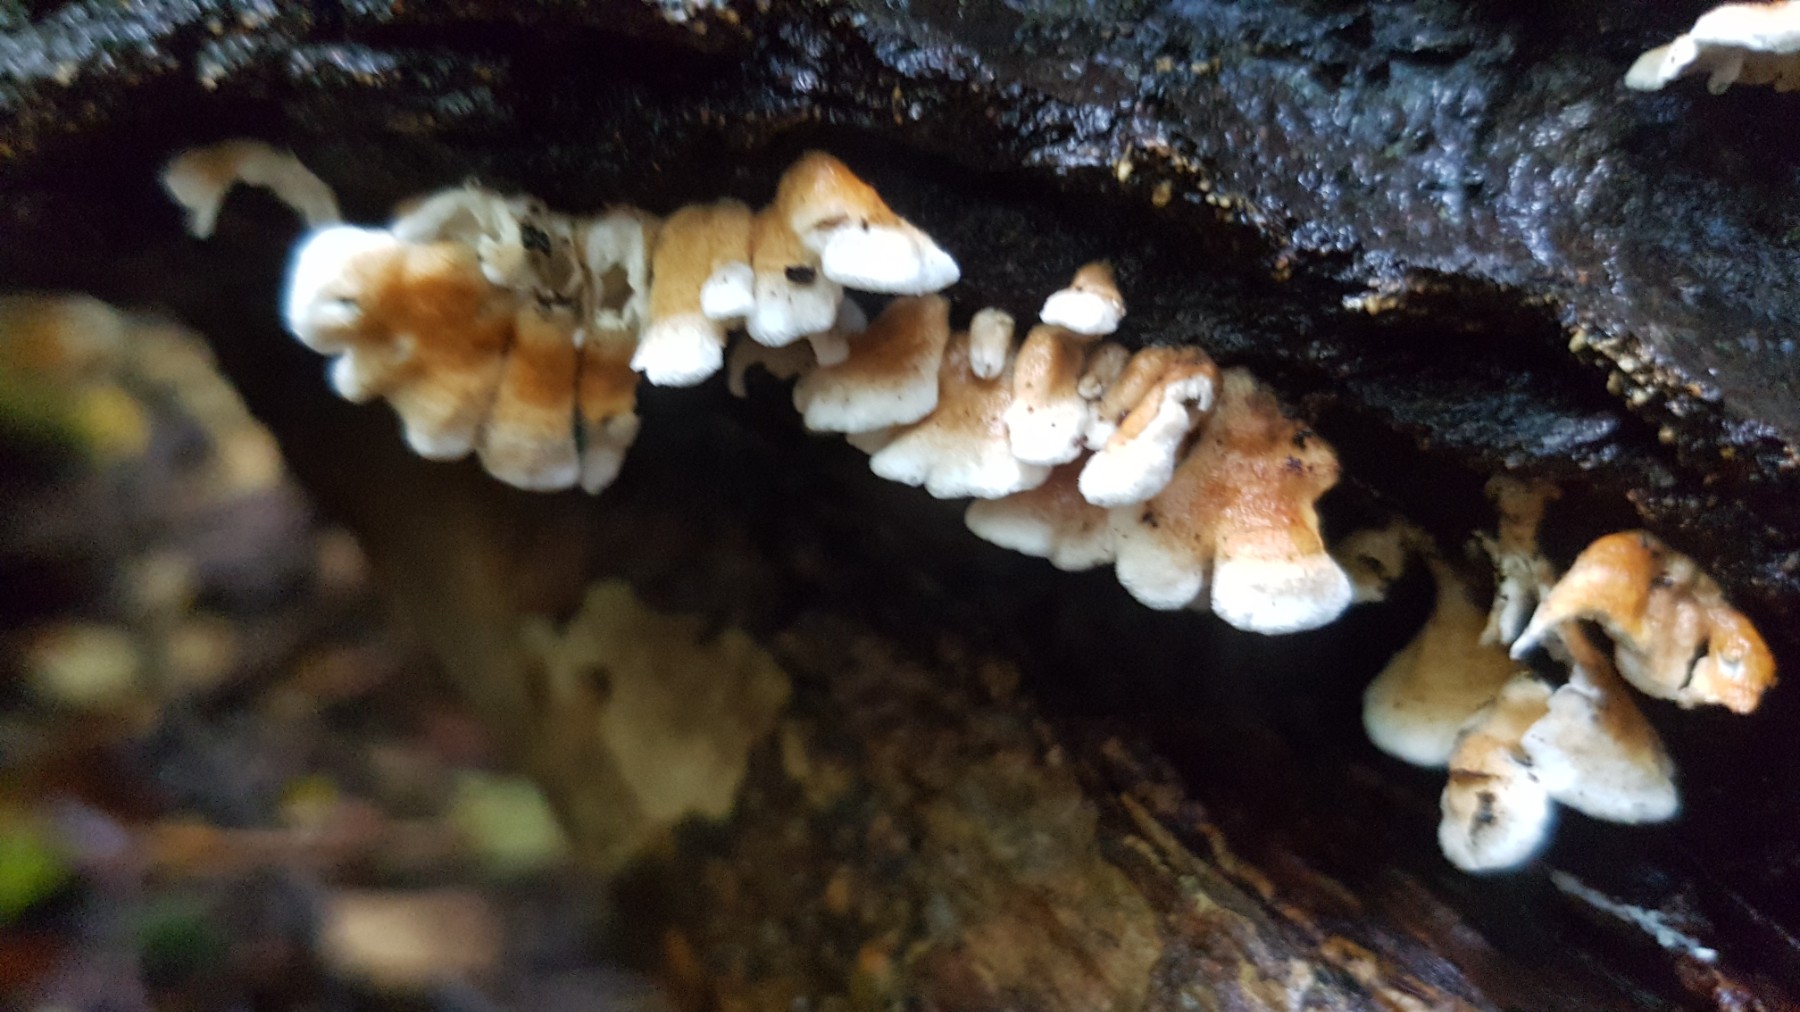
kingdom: Fungi
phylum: Basidiomycota
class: Agaricomycetes
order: Amylocorticiales
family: Amylocorticiaceae
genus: Plicaturopsis
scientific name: Plicaturopsis crispa
